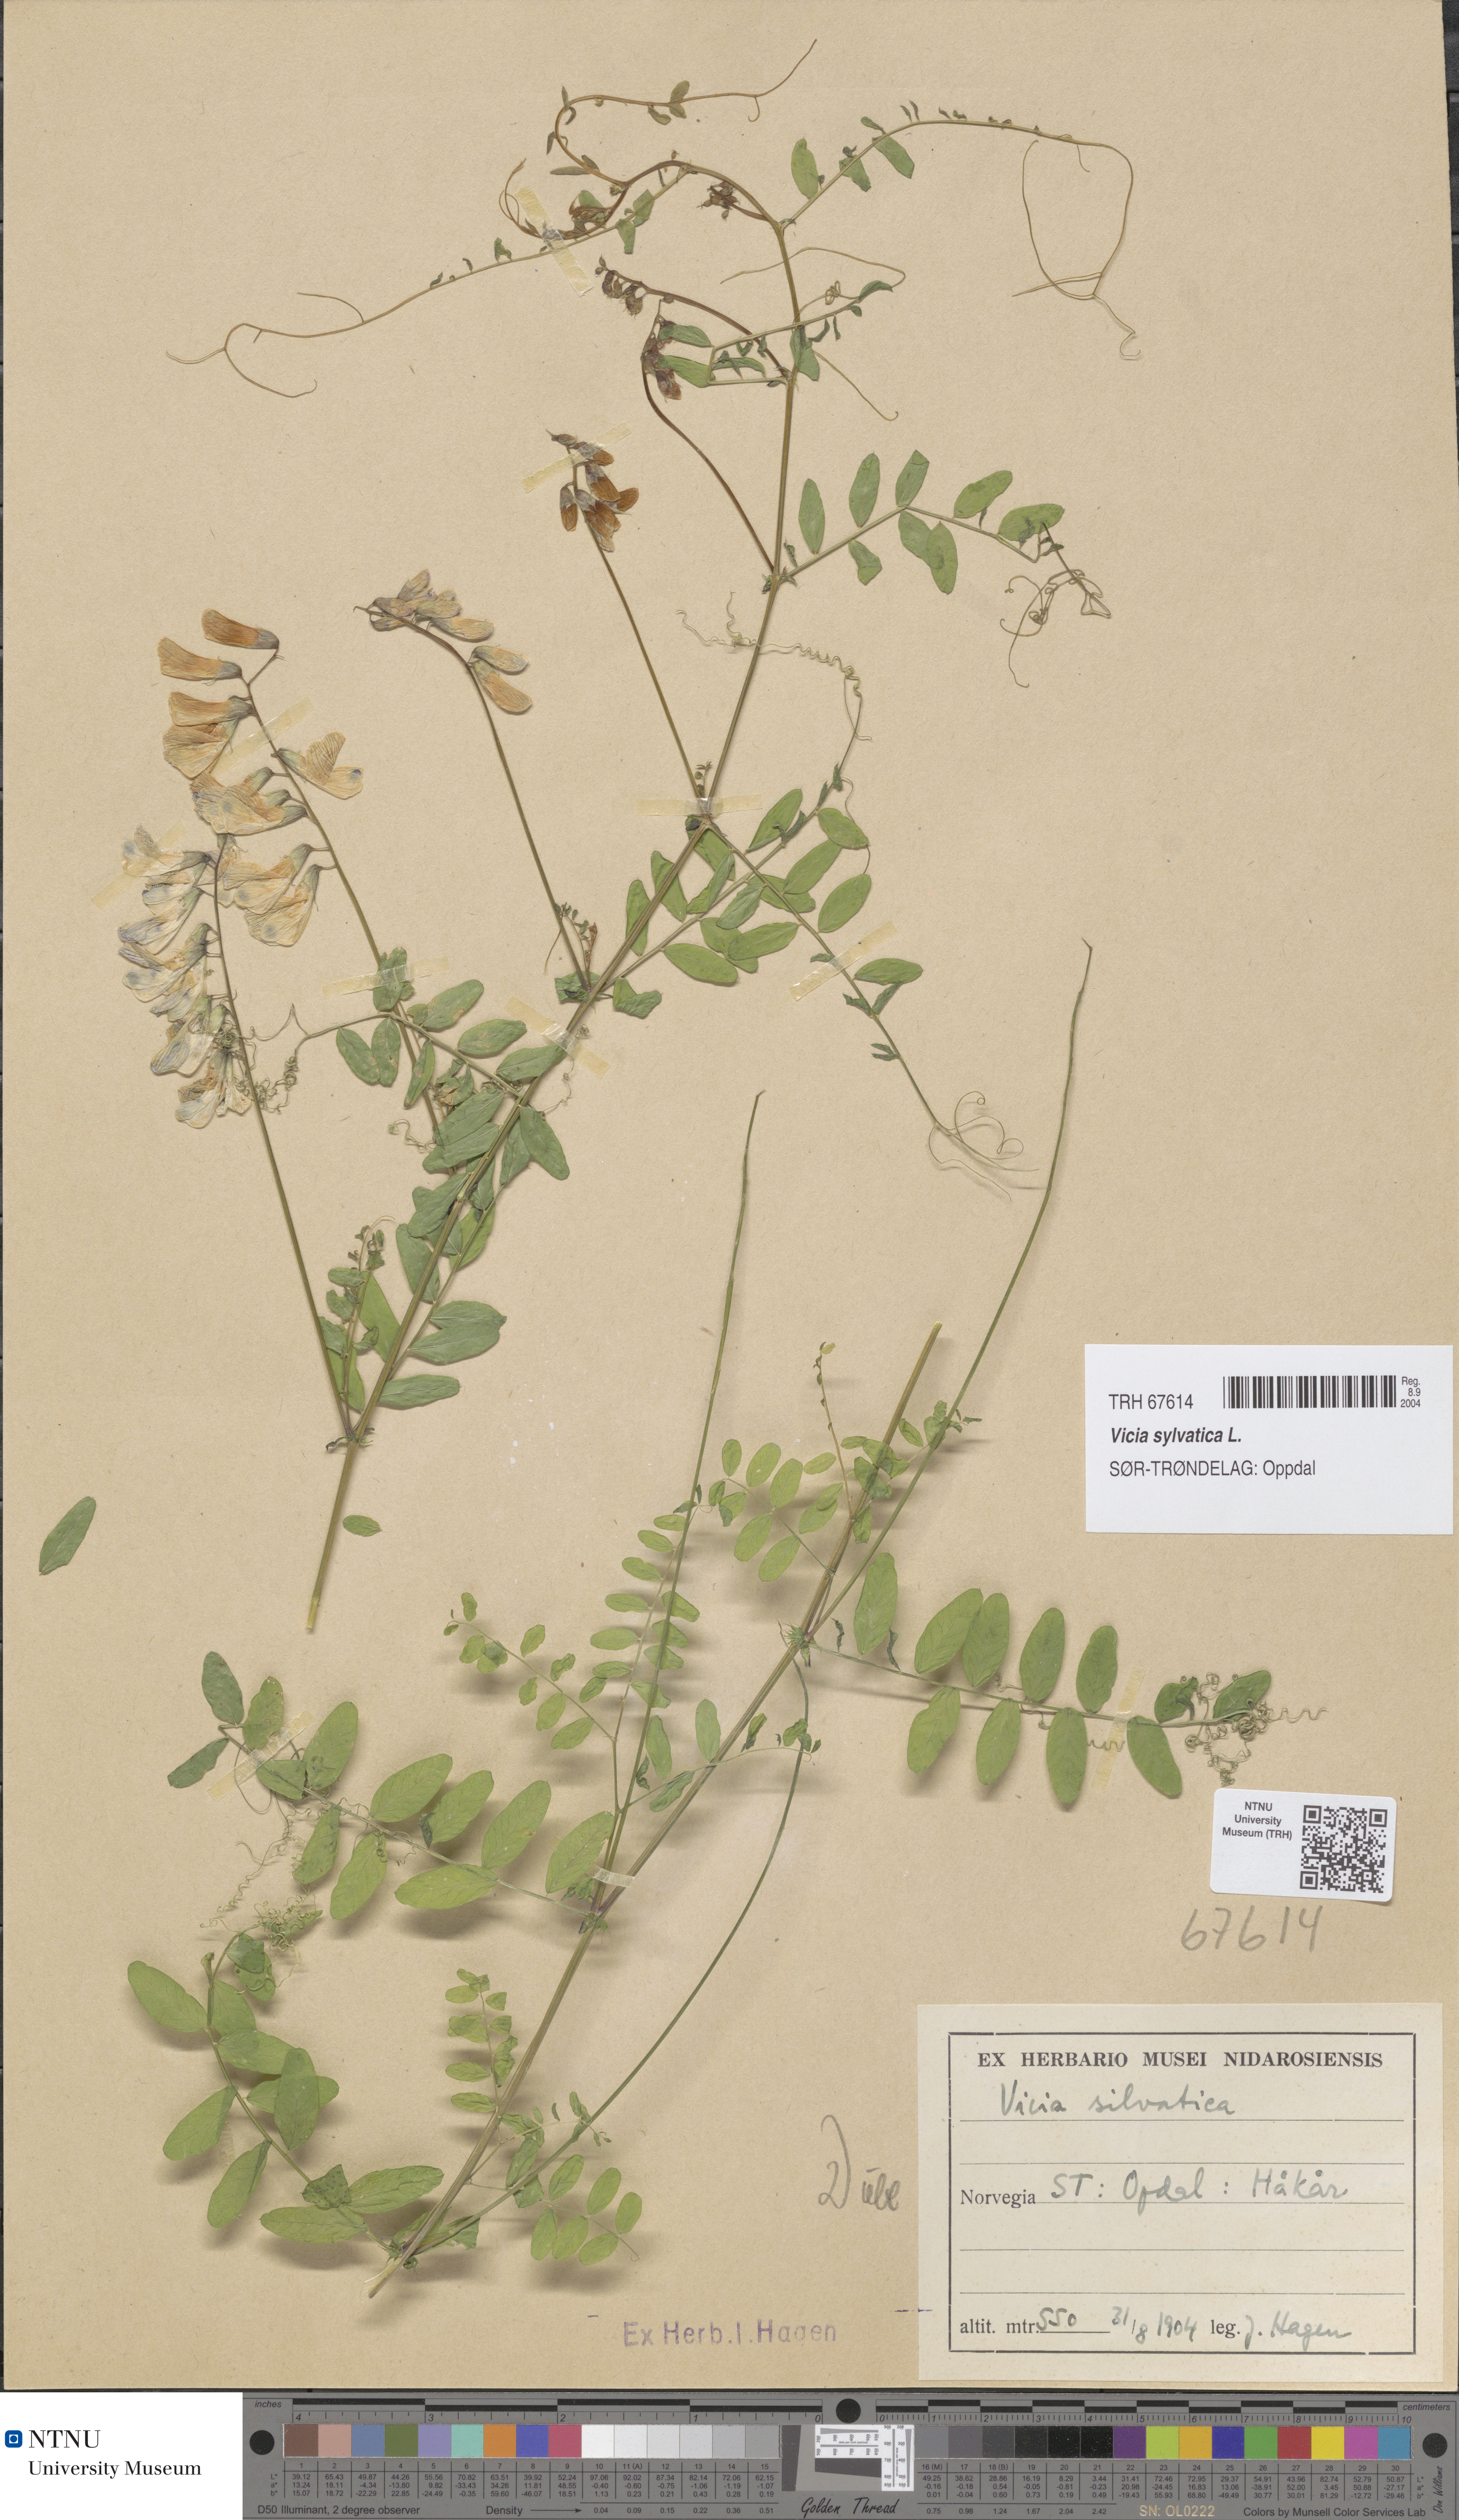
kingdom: Plantae
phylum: Tracheophyta
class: Magnoliopsida
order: Fabales
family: Fabaceae
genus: Vicia
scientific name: Vicia sylvatica
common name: Wood vetch
